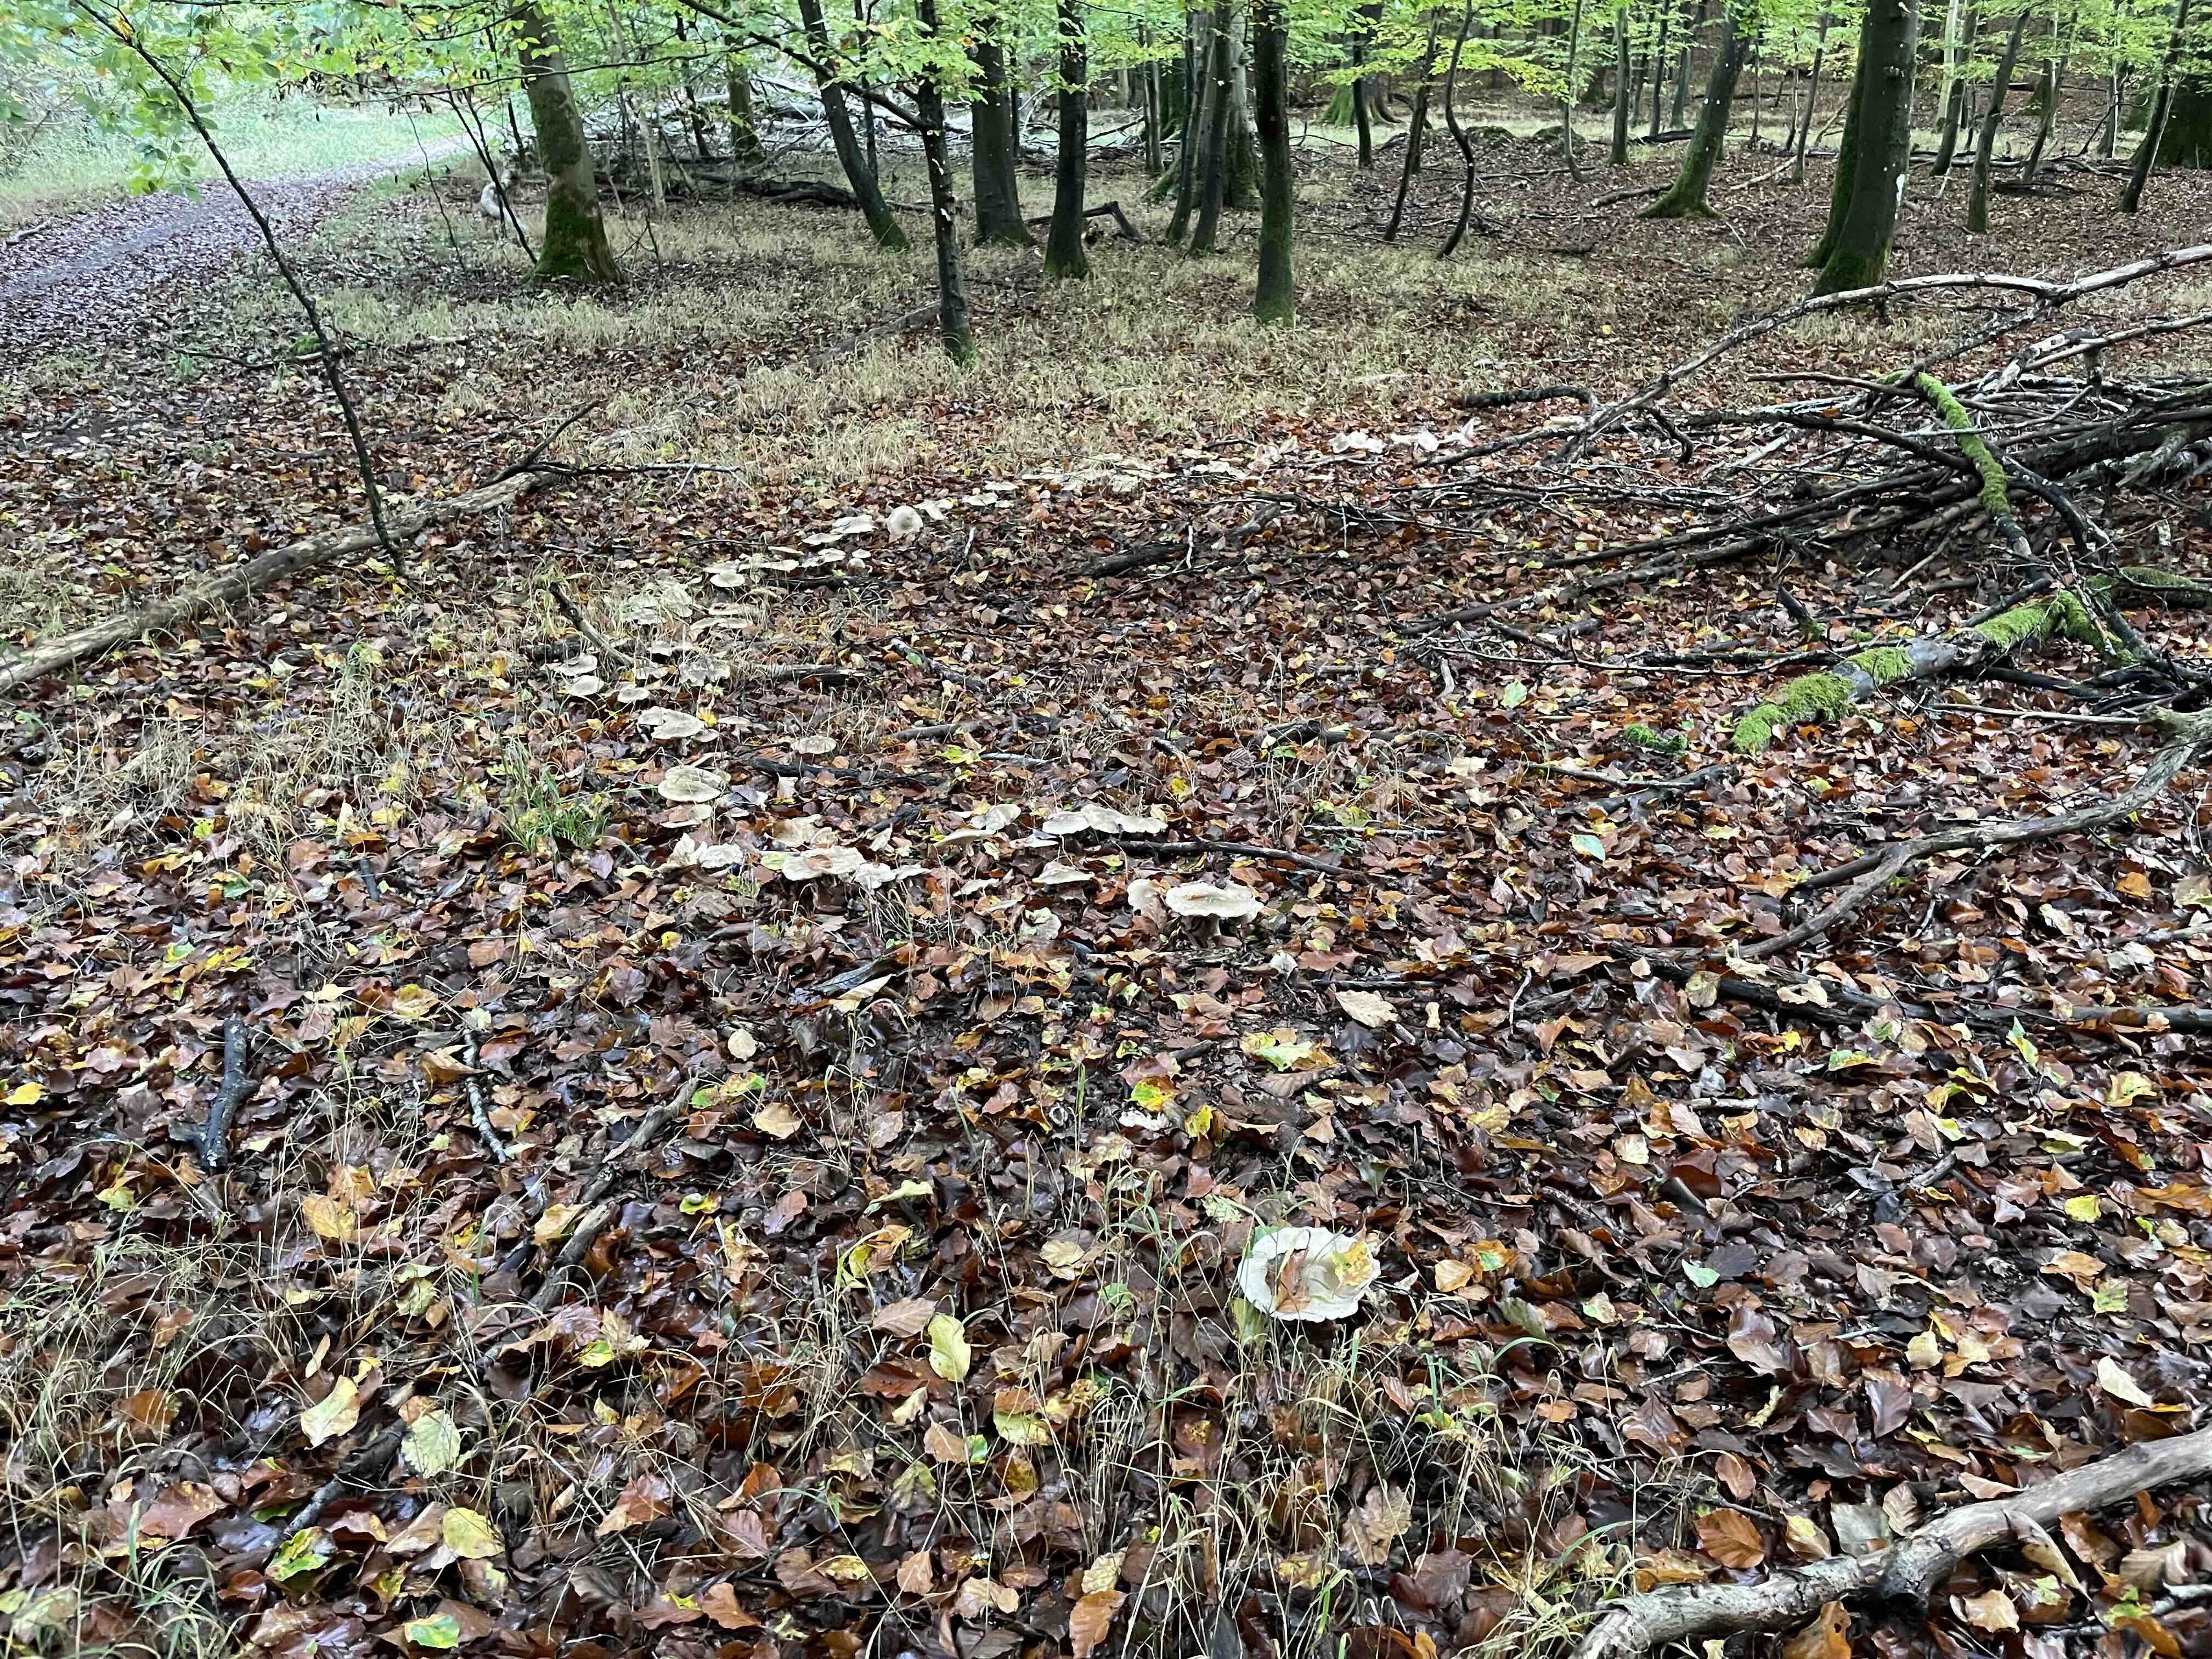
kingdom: Fungi
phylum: Basidiomycota
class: Agaricomycetes
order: Agaricales
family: Tricholomataceae
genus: Clitocybe
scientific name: Clitocybe nebularis
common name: tåge-tragthat
